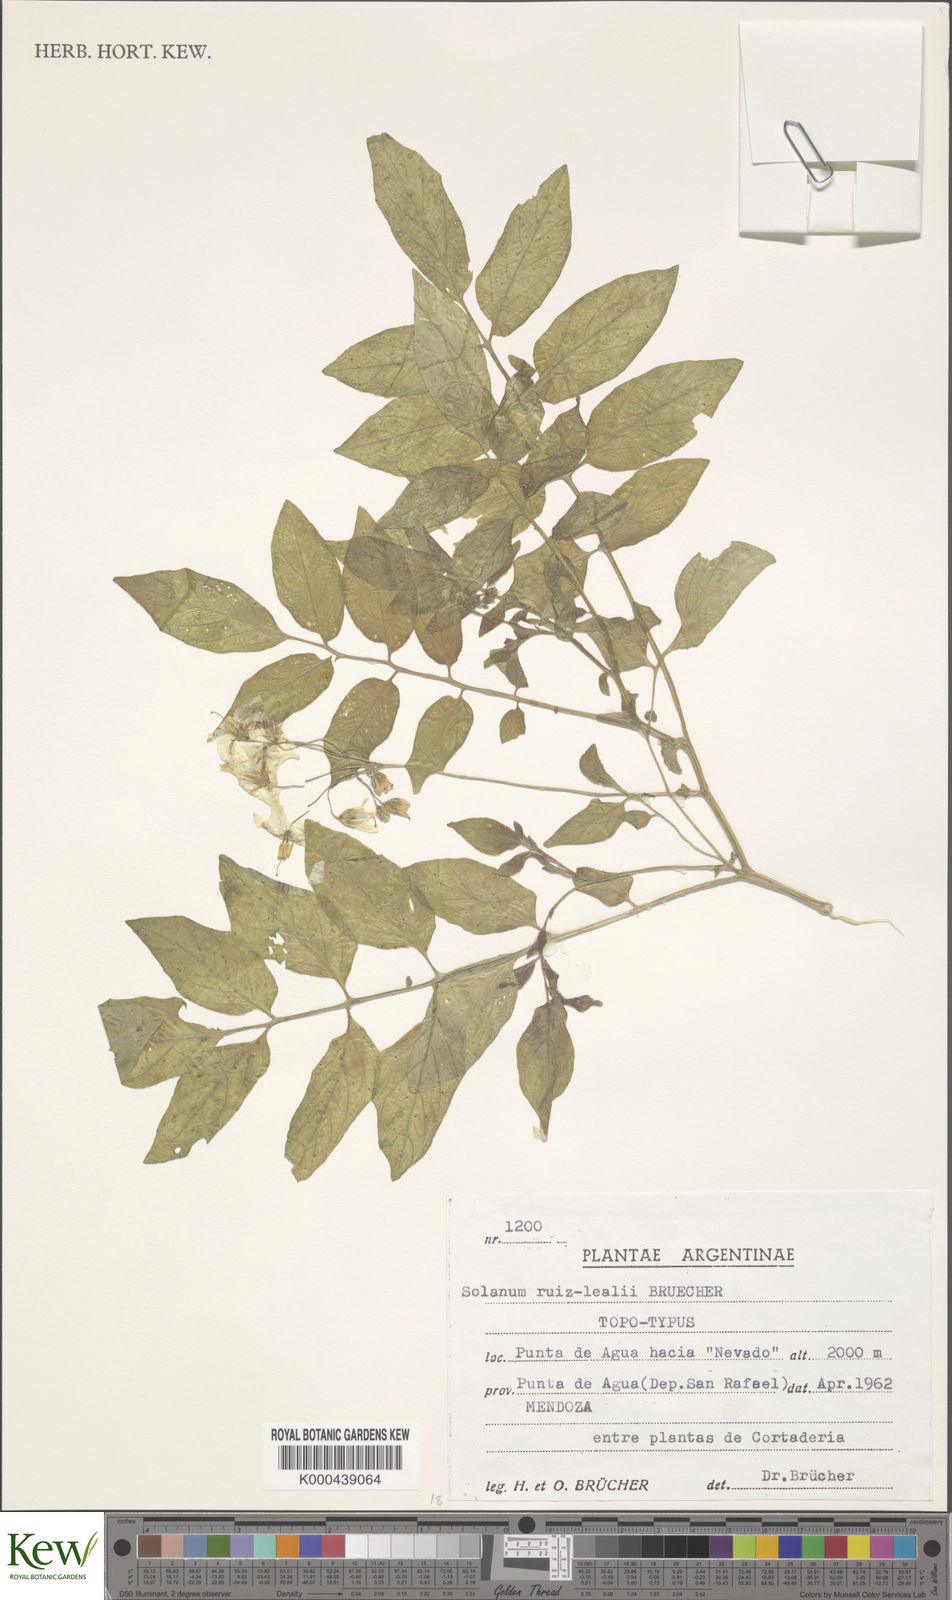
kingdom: Plantae
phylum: Tracheophyta
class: Magnoliopsida
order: Solanales
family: Solanaceae
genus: Solanum
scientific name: Solanum
